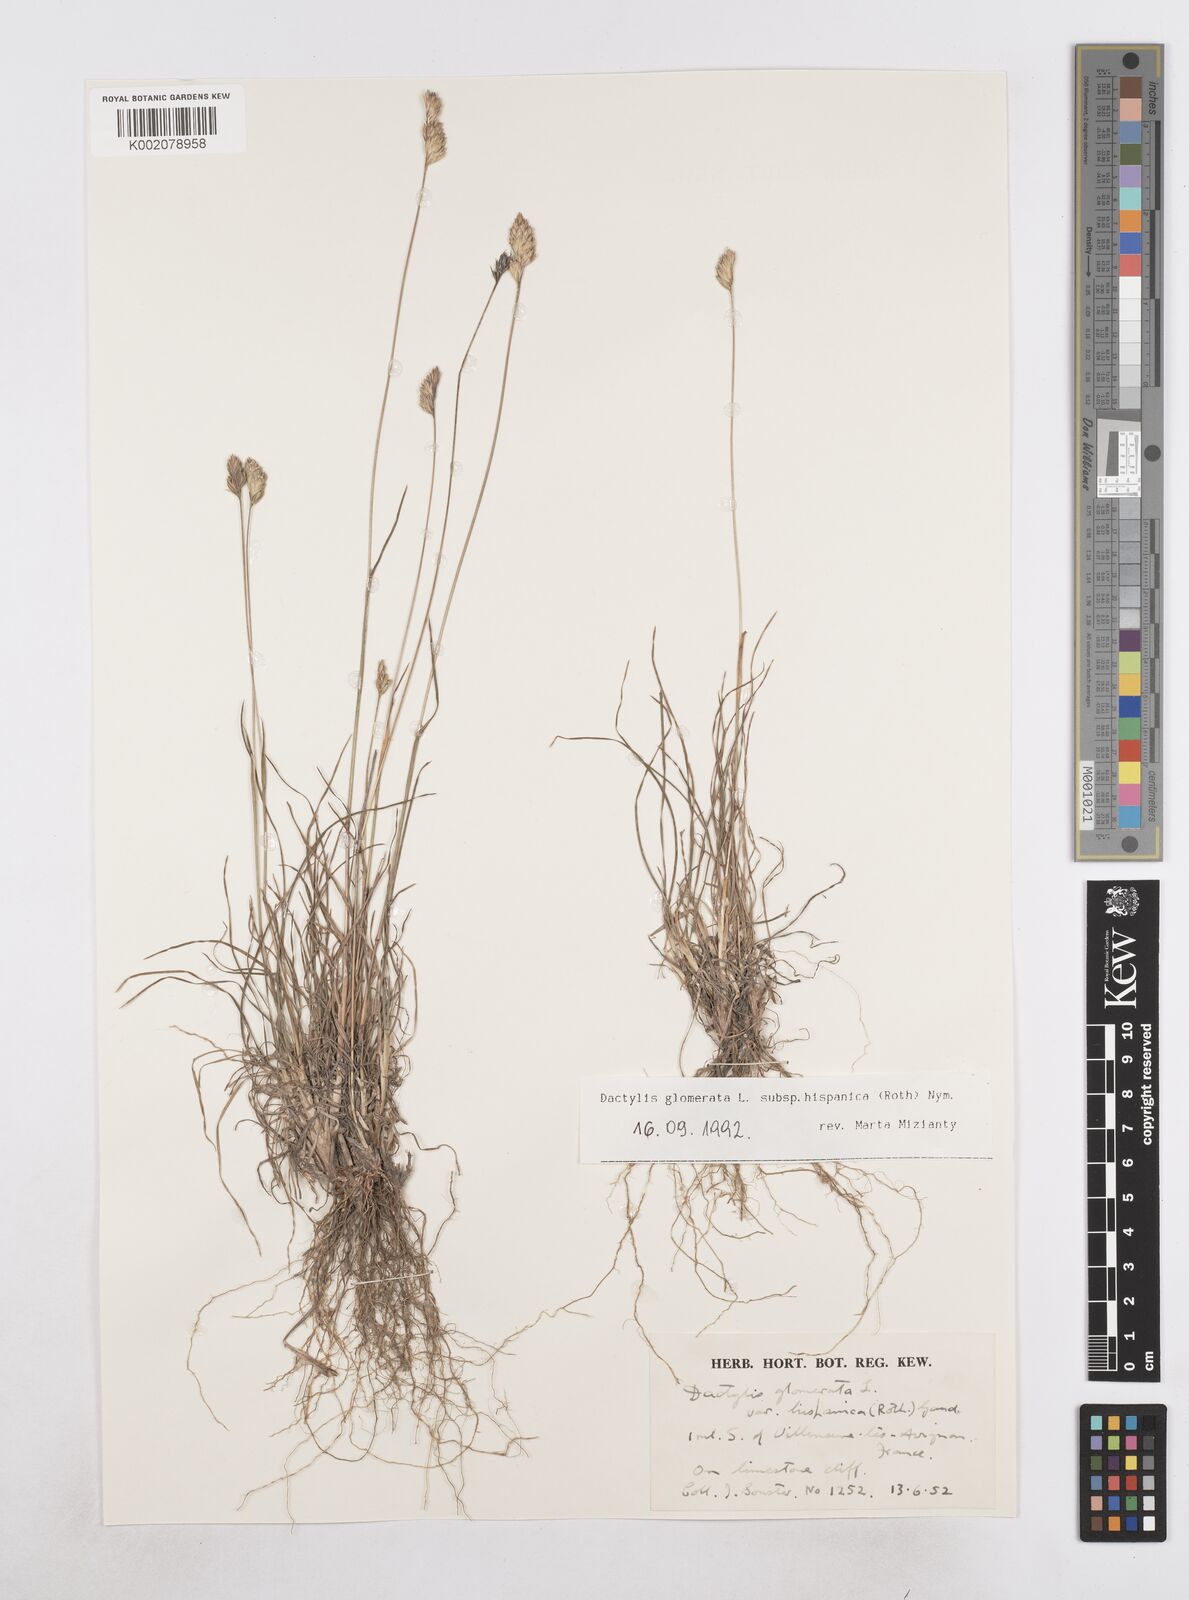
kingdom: Plantae
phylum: Tracheophyta
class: Liliopsida
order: Poales
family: Poaceae
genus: Dactylis
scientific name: Dactylis glomerata
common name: Orchardgrass
